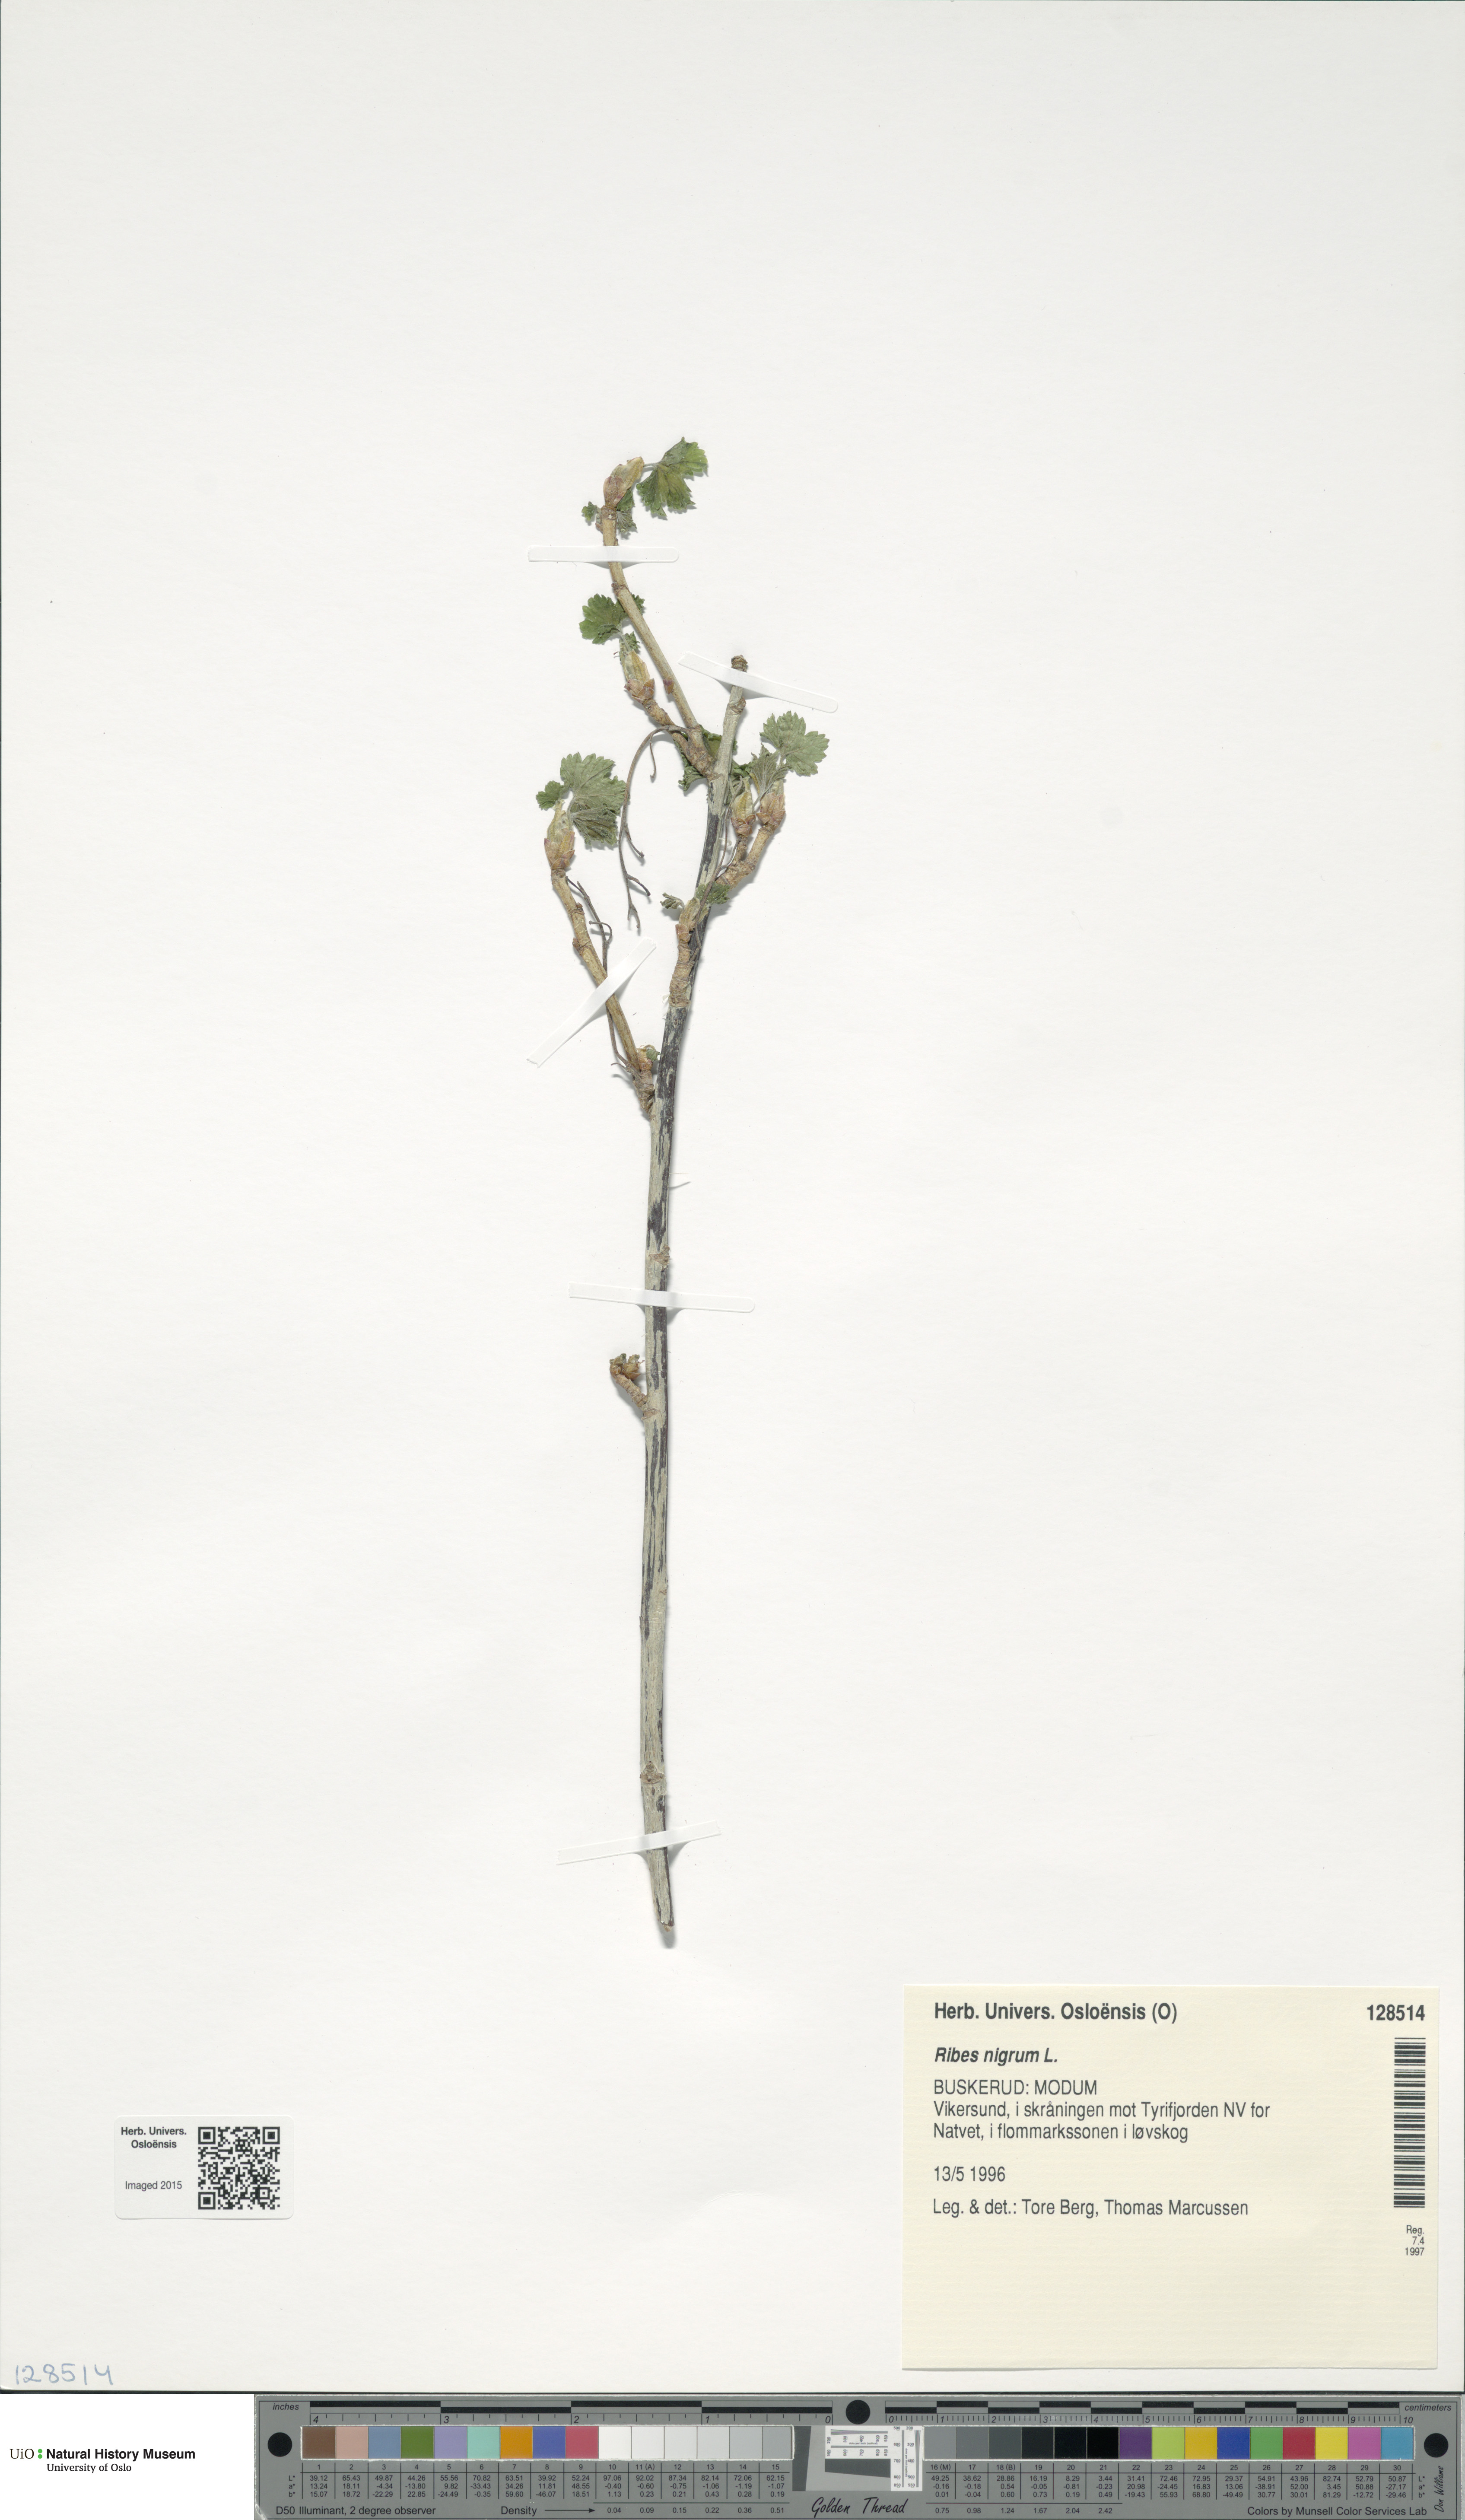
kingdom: Plantae
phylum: Tracheophyta
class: Magnoliopsida
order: Saxifragales
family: Grossulariaceae
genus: Ribes
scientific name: Ribes nigrum
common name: Black currant
